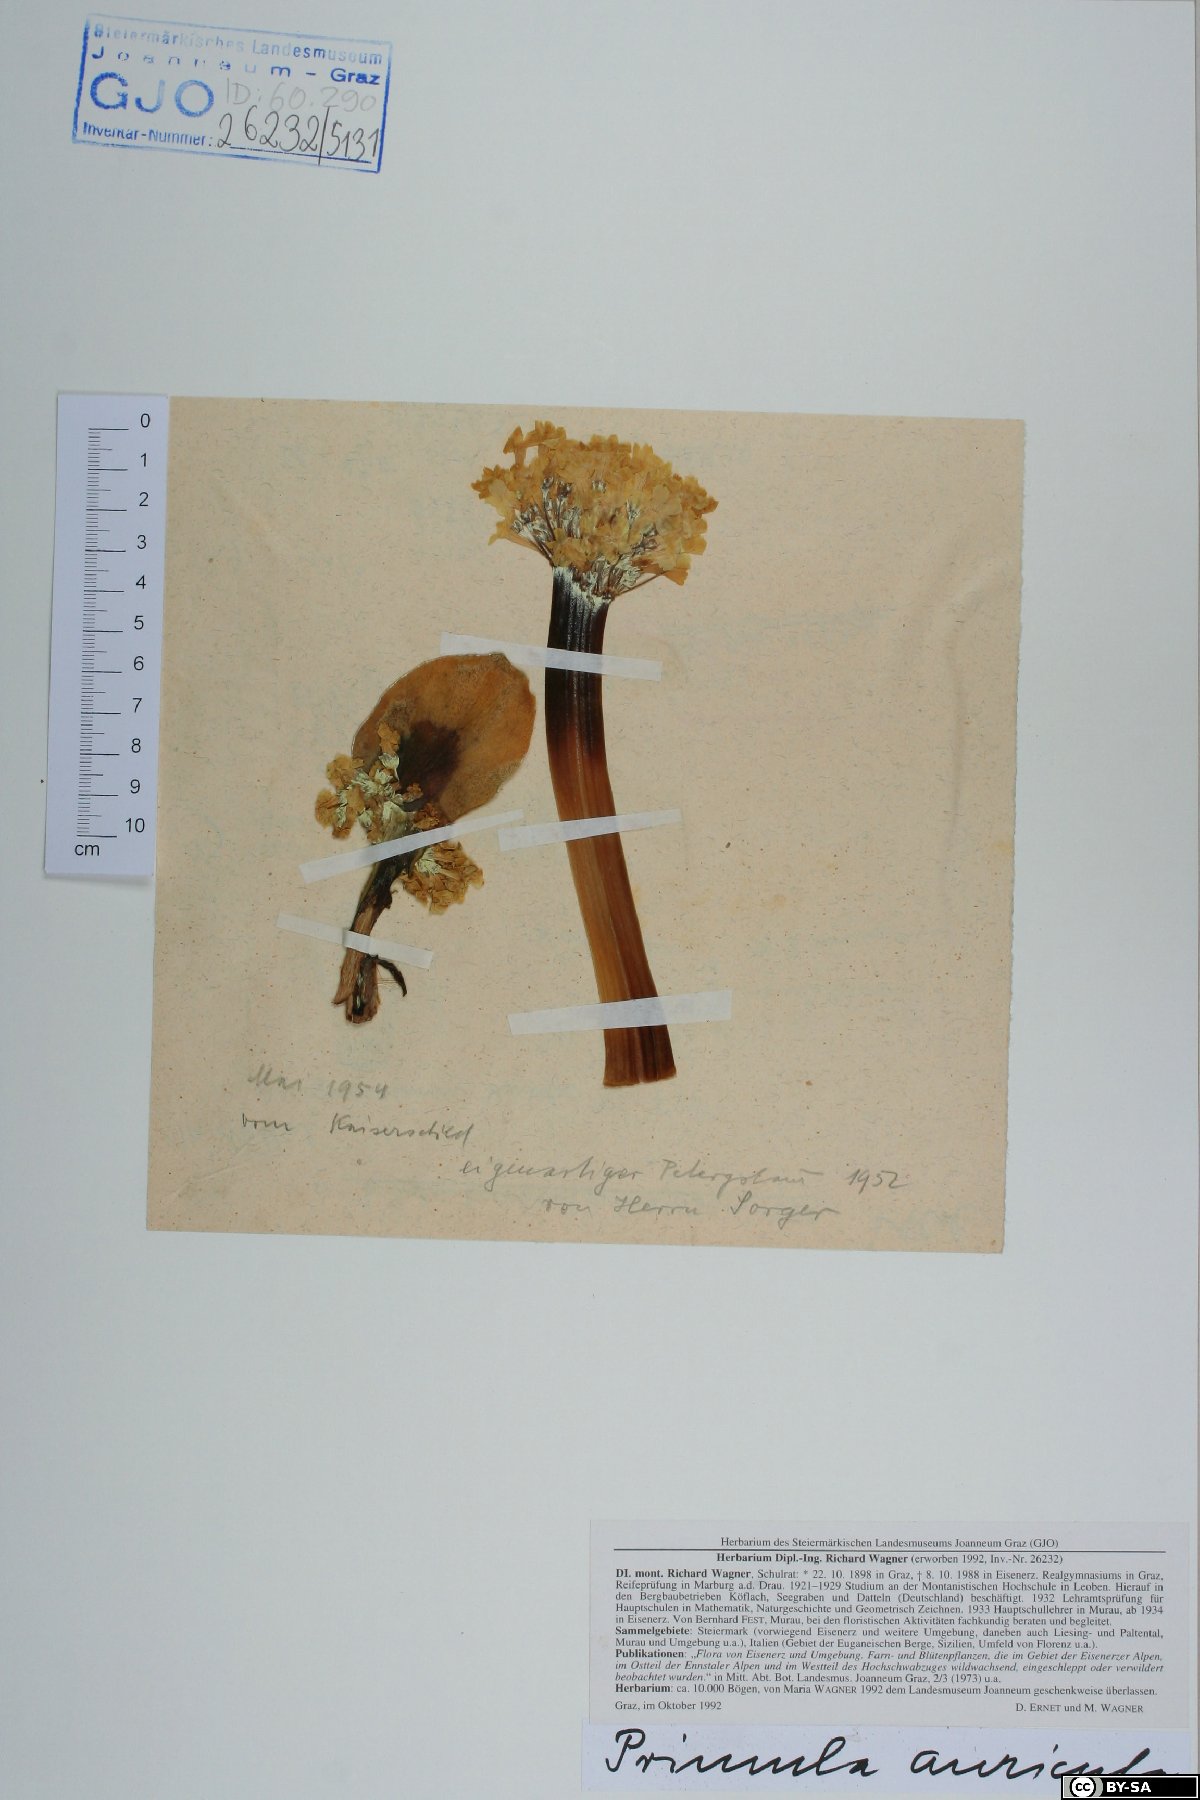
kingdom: Plantae
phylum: Tracheophyta
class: Magnoliopsida
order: Ericales
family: Primulaceae
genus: Primula
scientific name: Primula auricula
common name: Auricula
